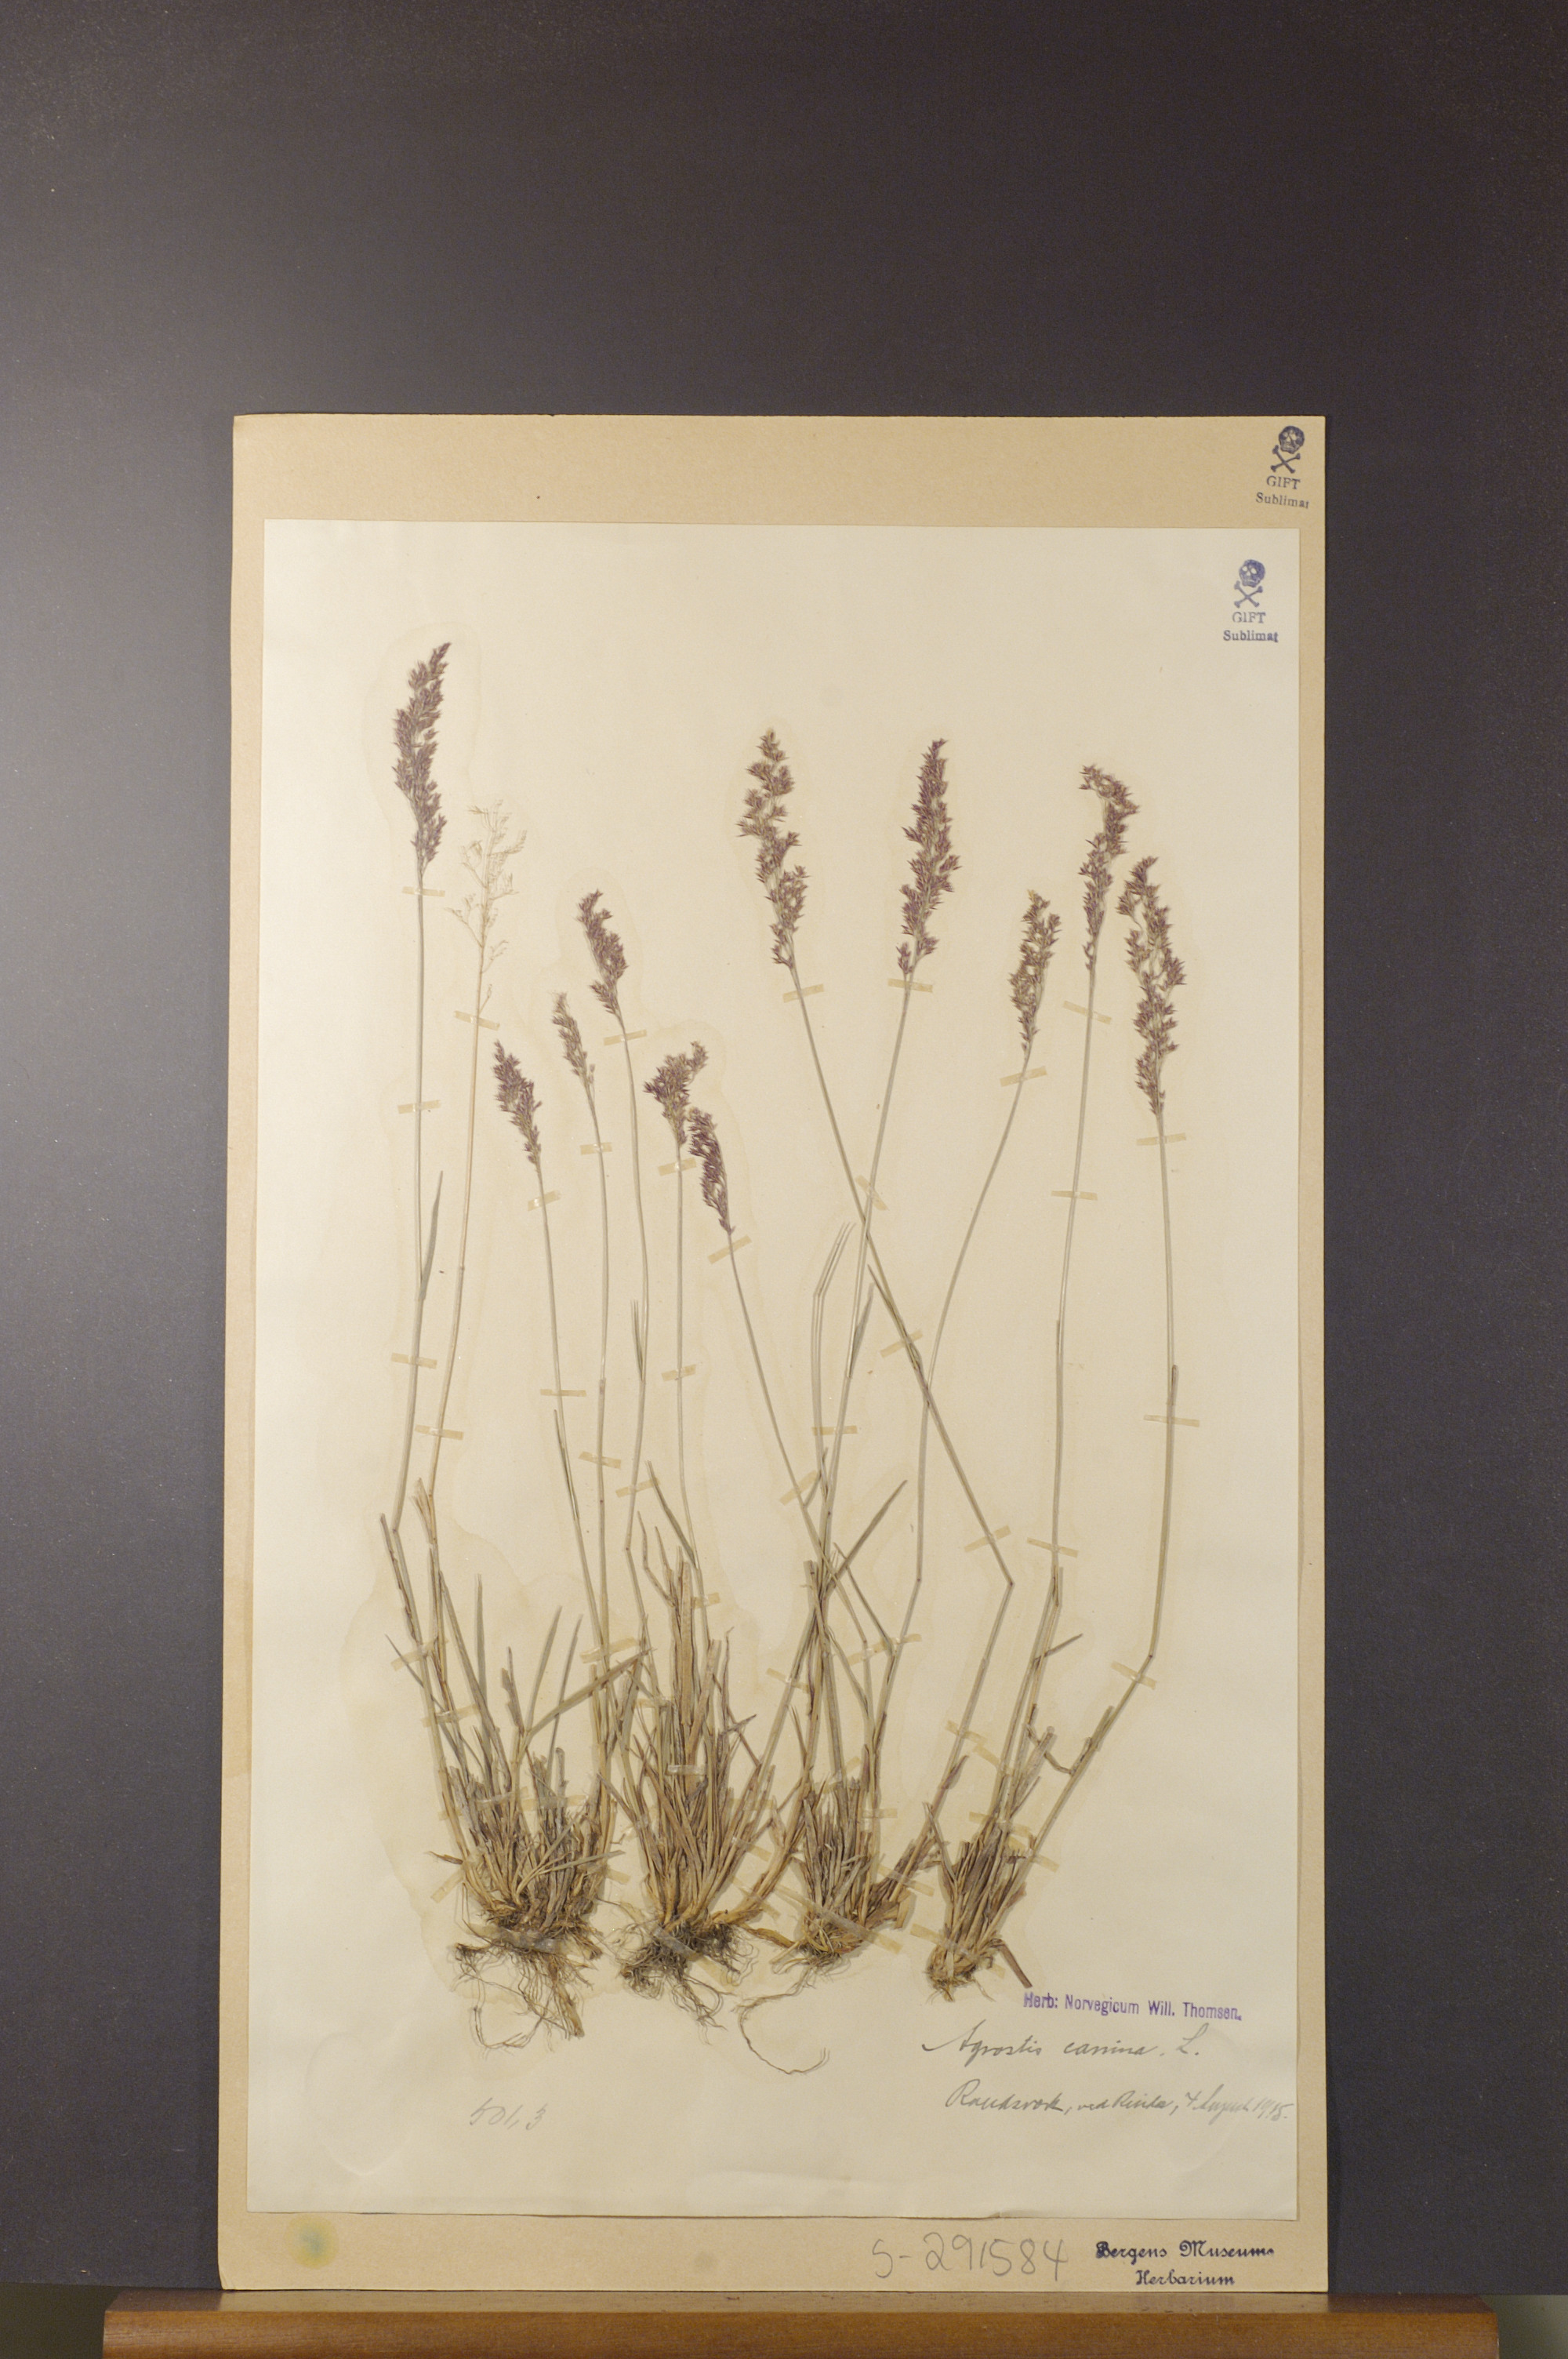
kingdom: Plantae
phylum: Tracheophyta
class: Liliopsida
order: Poales
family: Poaceae
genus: Agrostis
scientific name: Agrostis canina
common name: Velvet bent
